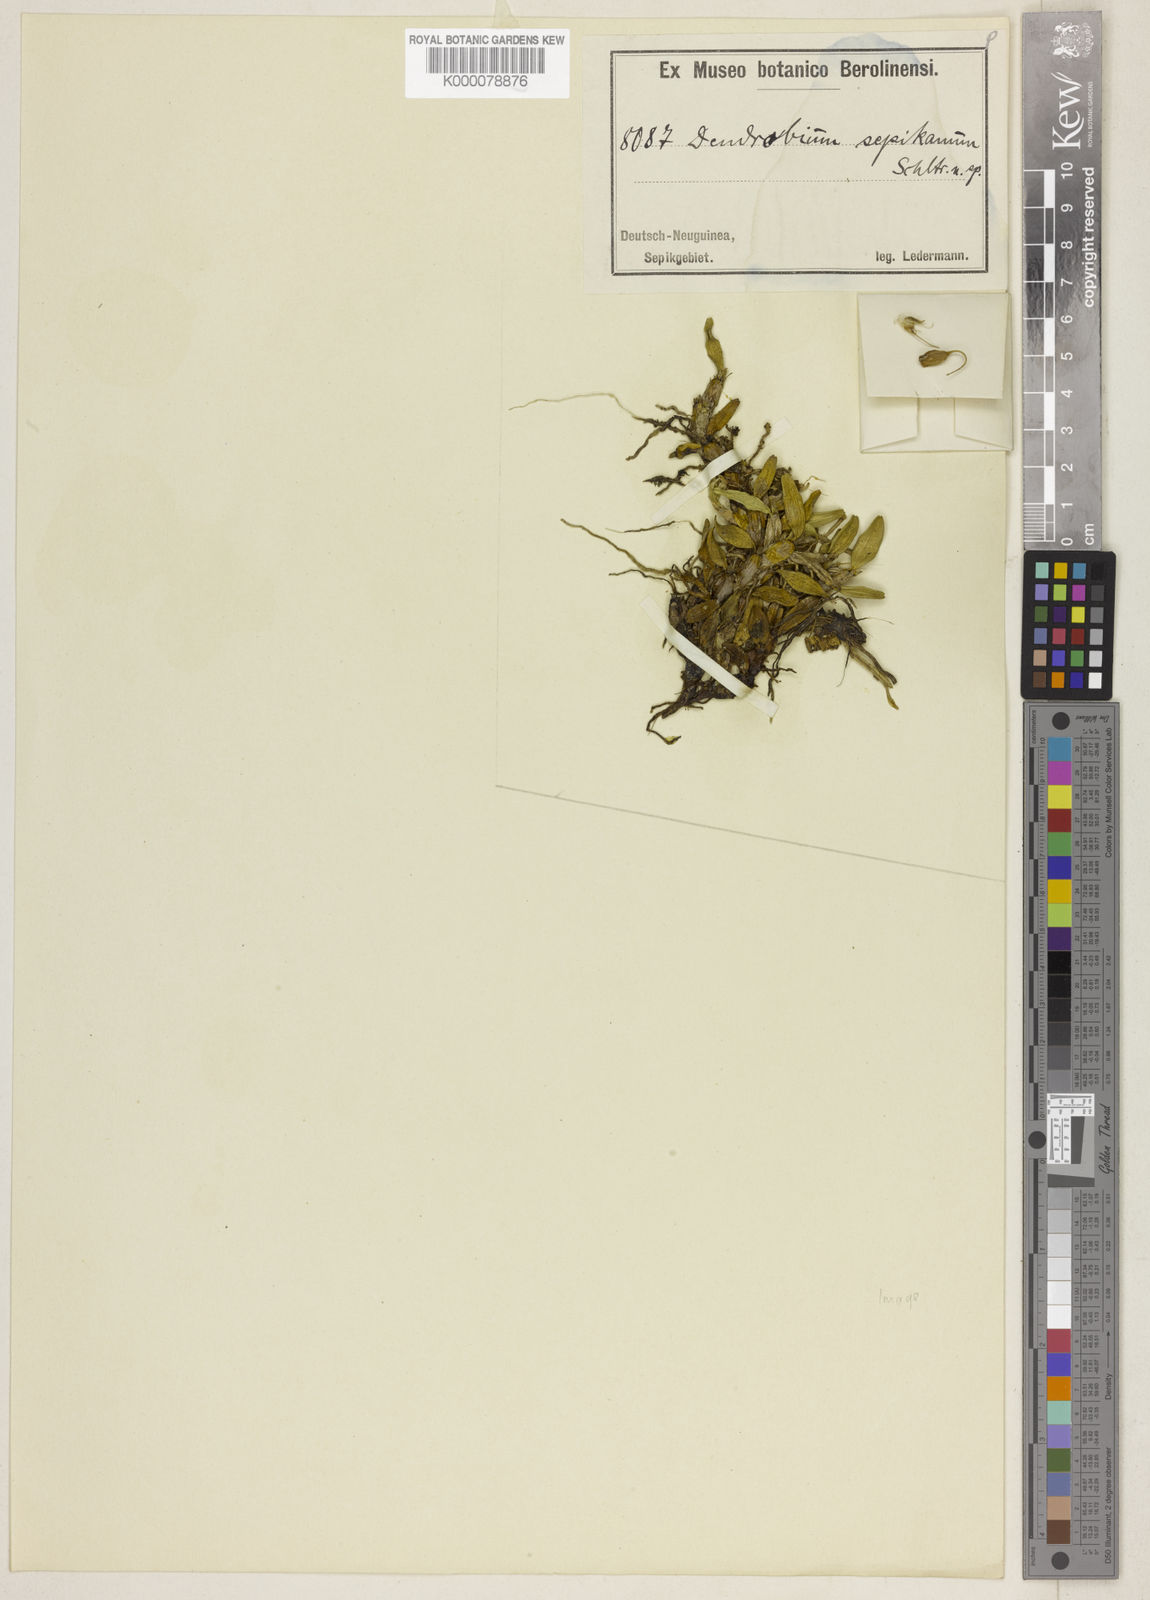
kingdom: Plantae
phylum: Tracheophyta
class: Liliopsida
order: Asparagales
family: Orchidaceae
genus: Dendrobium
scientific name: Dendrobium sepikanum
